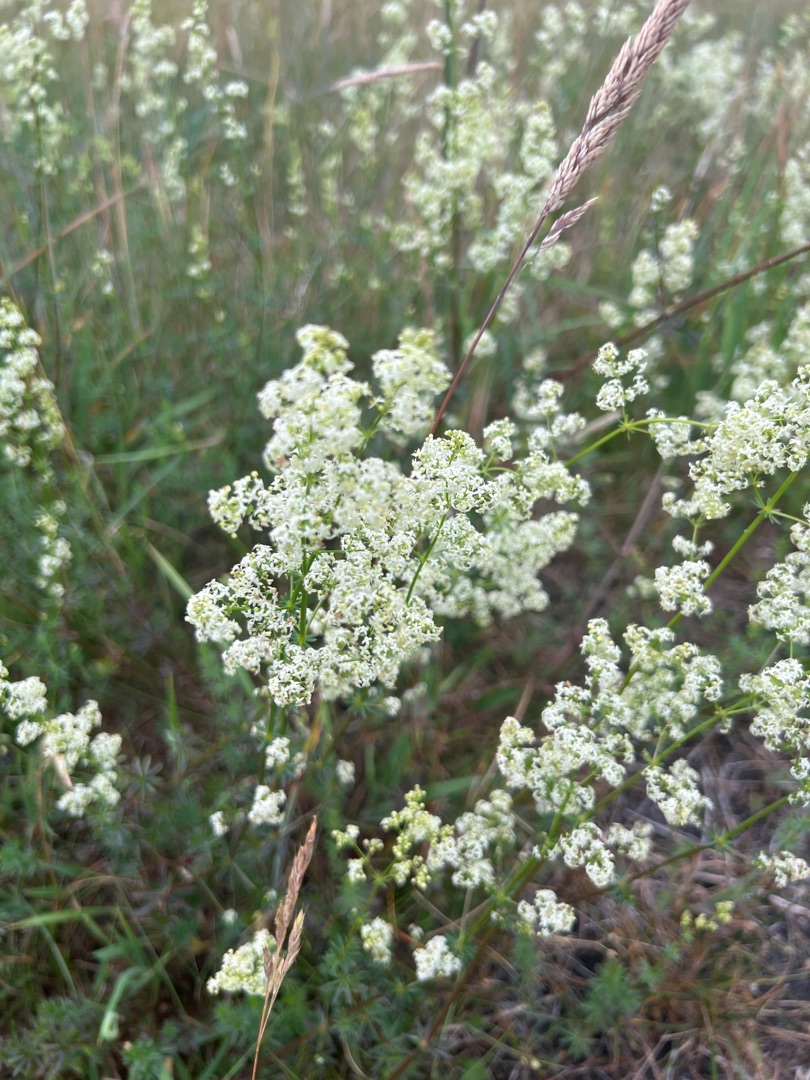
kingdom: Plantae
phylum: Tracheophyta
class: Magnoliopsida
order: Gentianales
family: Rubiaceae
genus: Galium
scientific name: Galium mollugo
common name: Hvid snerre
